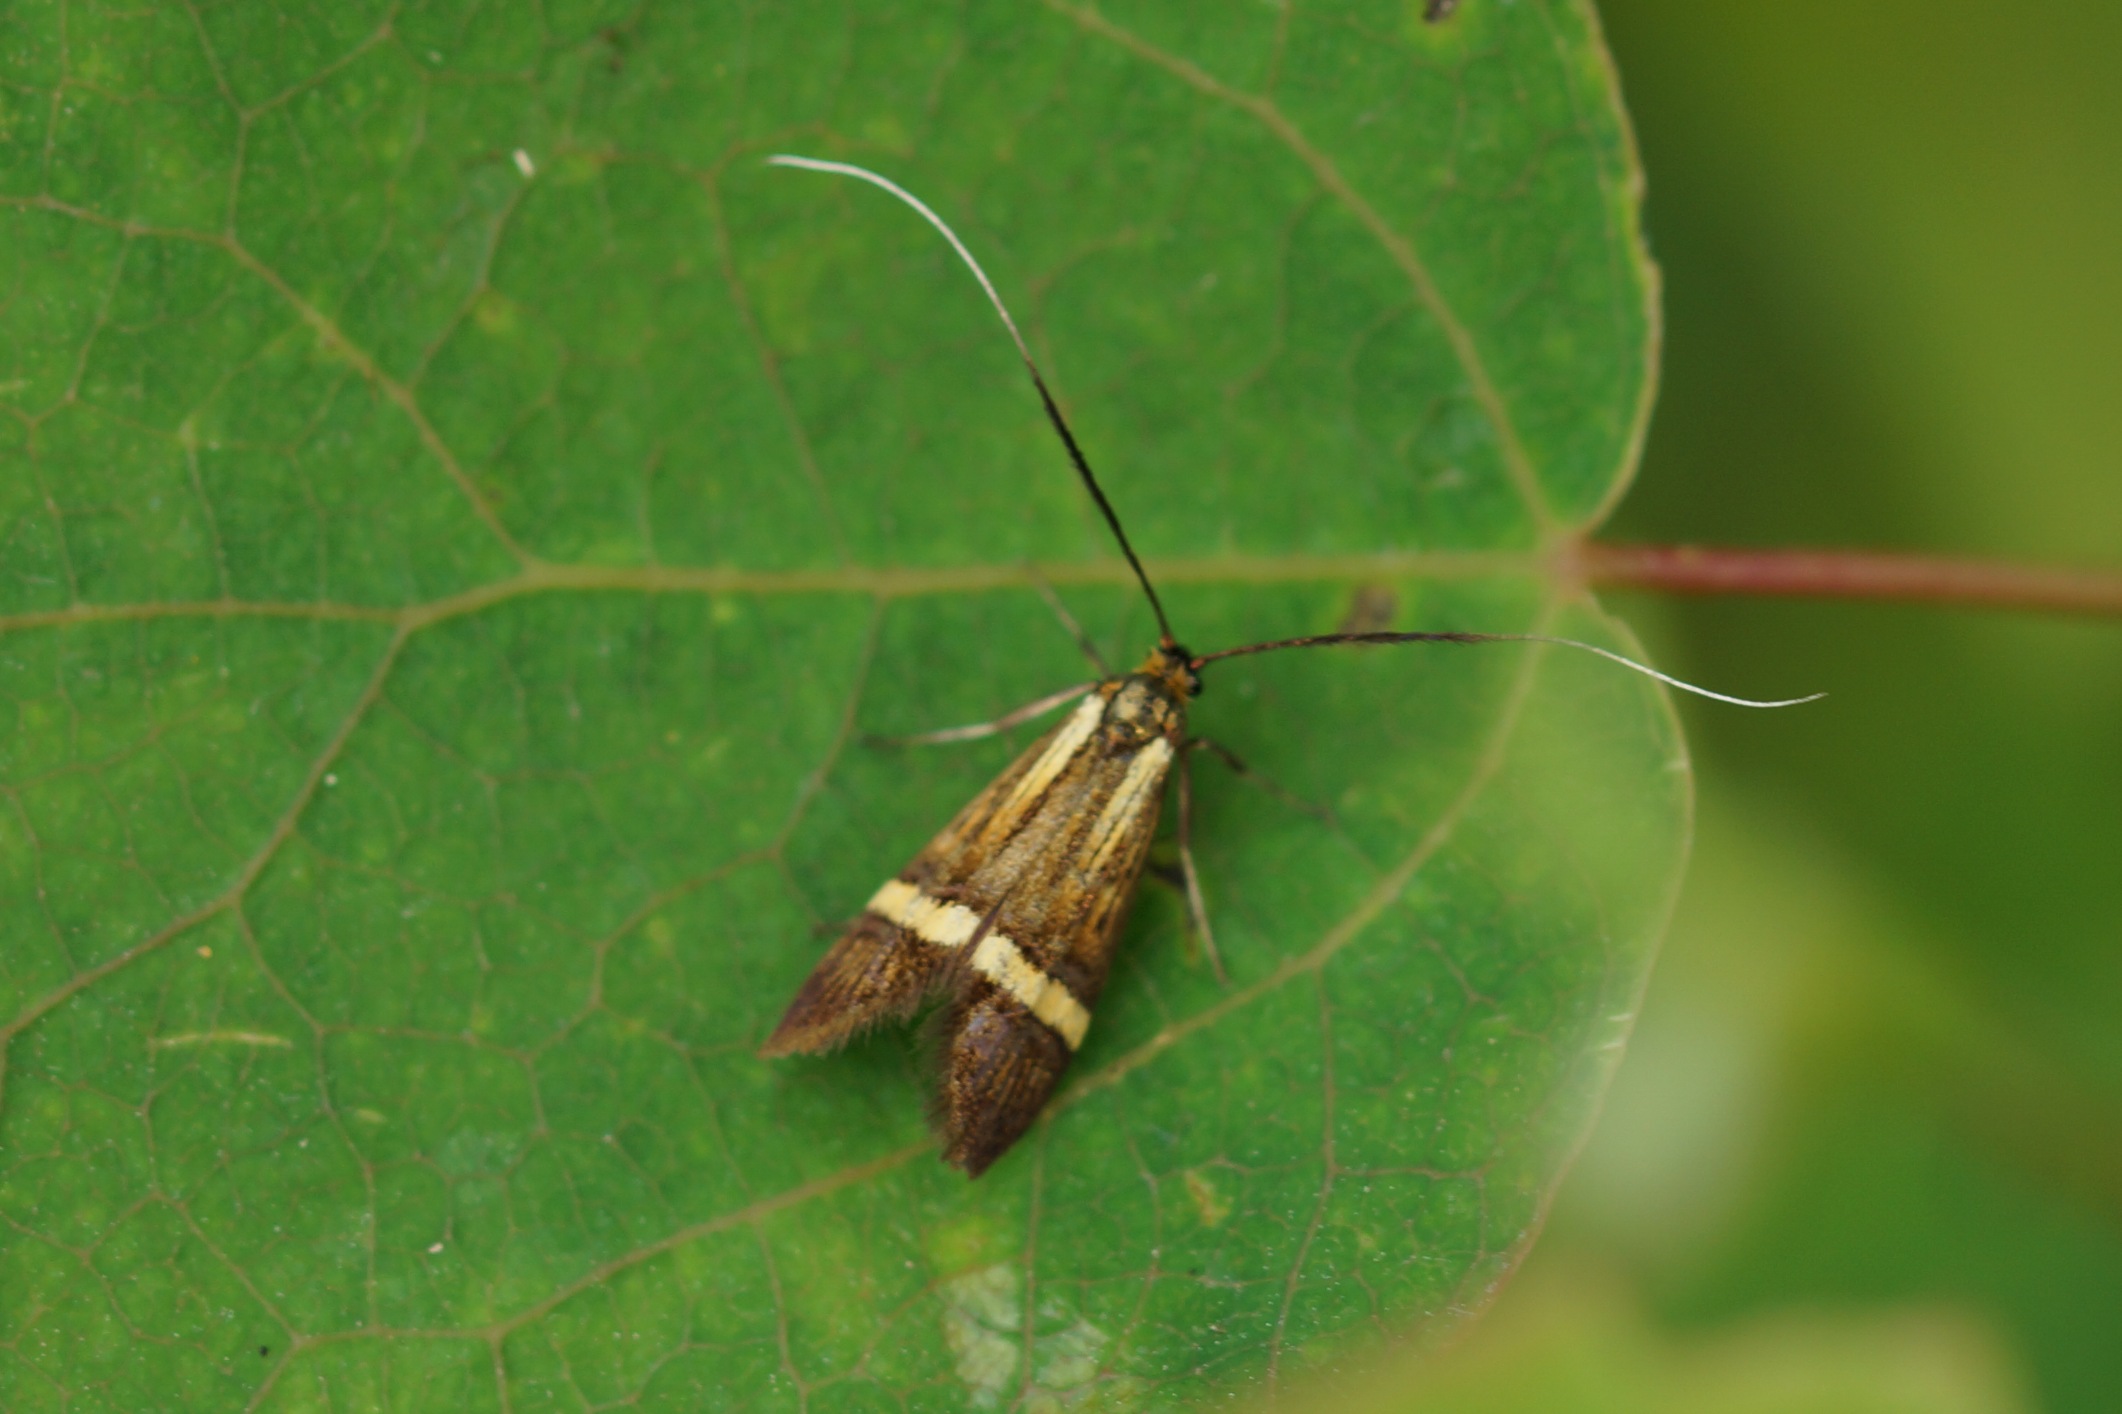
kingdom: Animalia
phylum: Arthropoda
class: Insecta
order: Lepidoptera
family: Adelidae
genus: Nemophora
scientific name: Nemophora degeerella
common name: Løvskovslanghornsmøl
